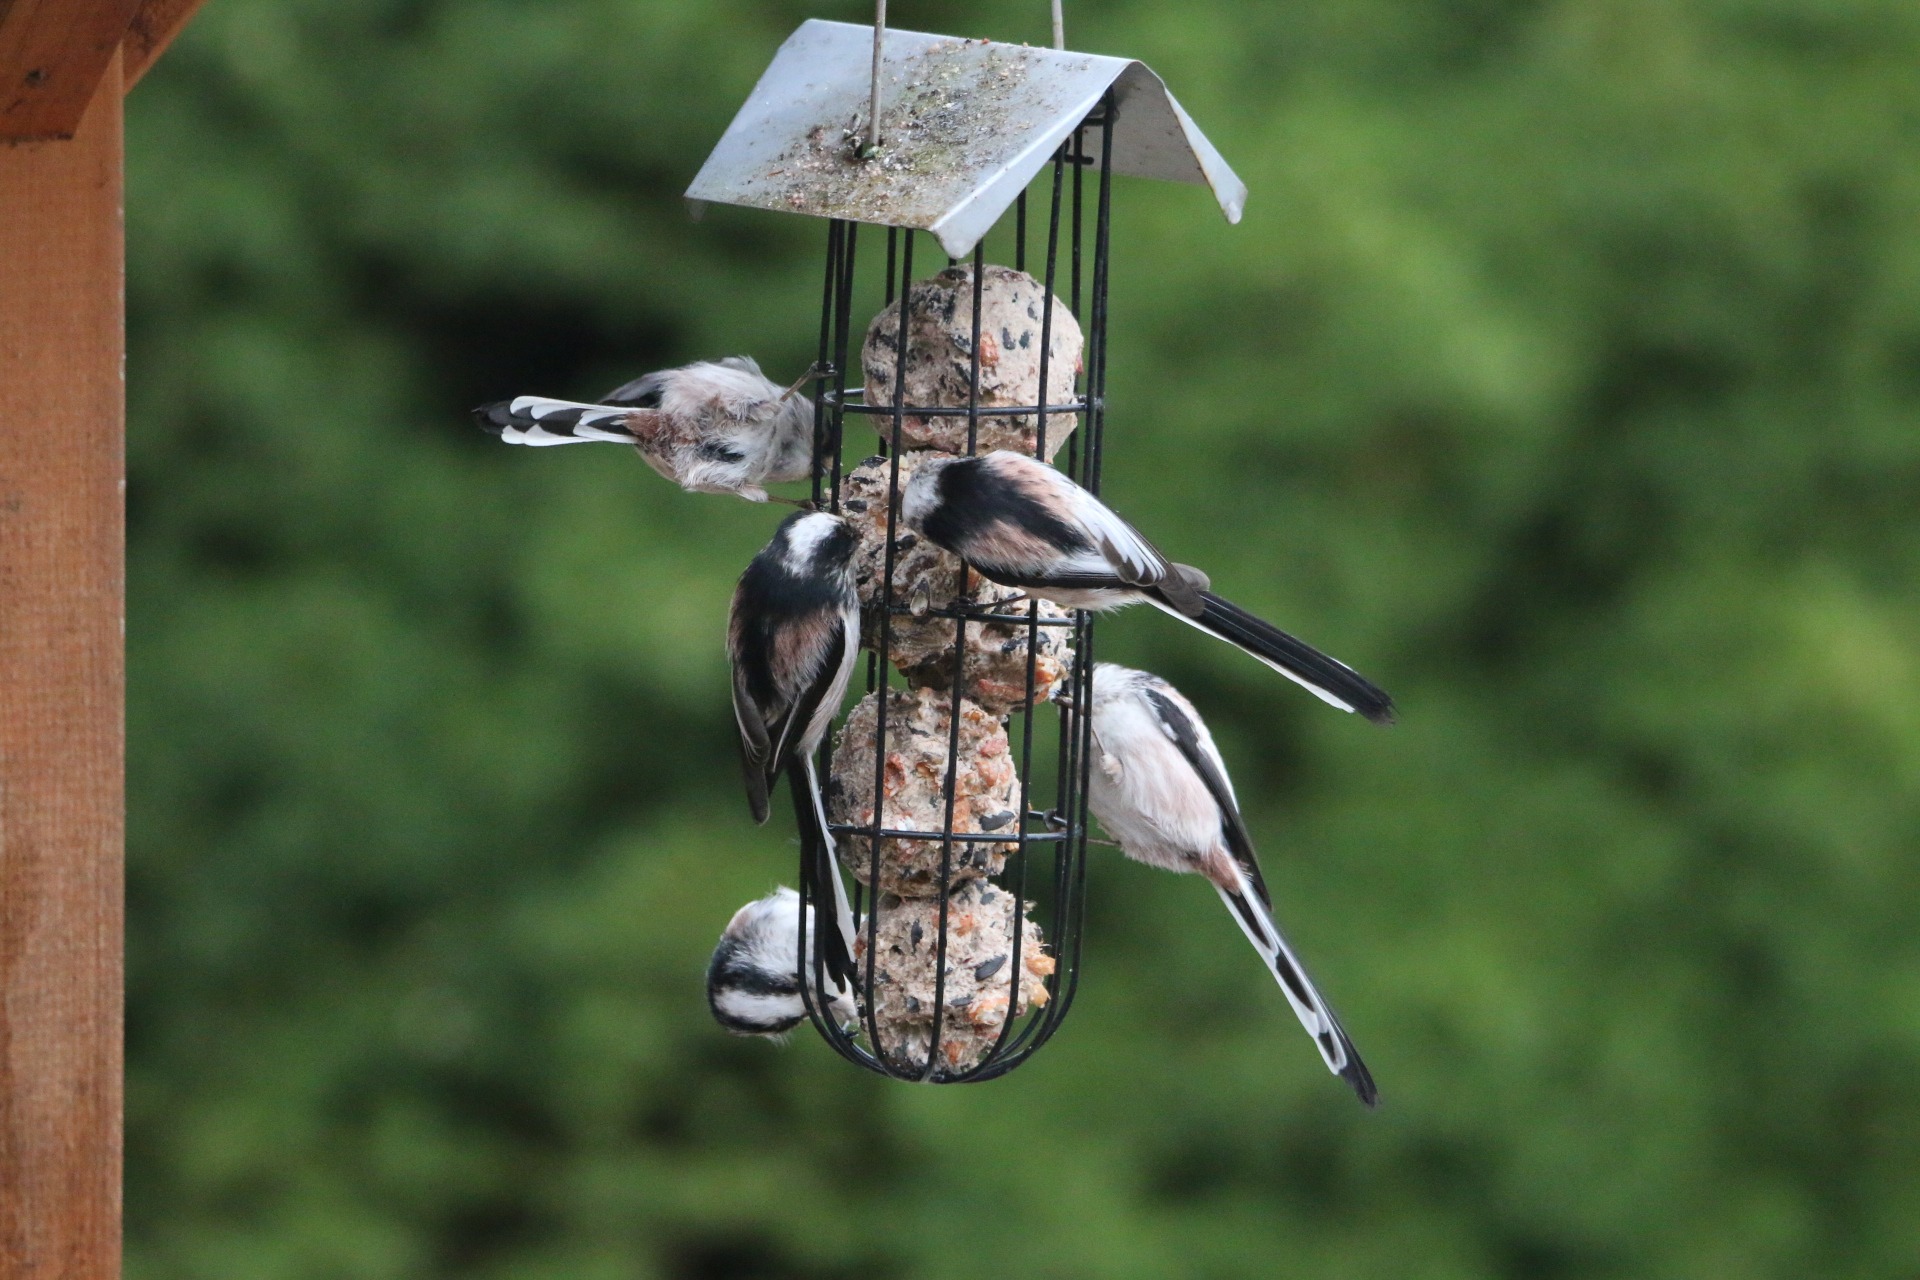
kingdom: Animalia
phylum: Chordata
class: Aves
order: Passeriformes
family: Aegithalidae
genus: Aegithalos
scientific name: Aegithalos caudatus
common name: Halemejse
